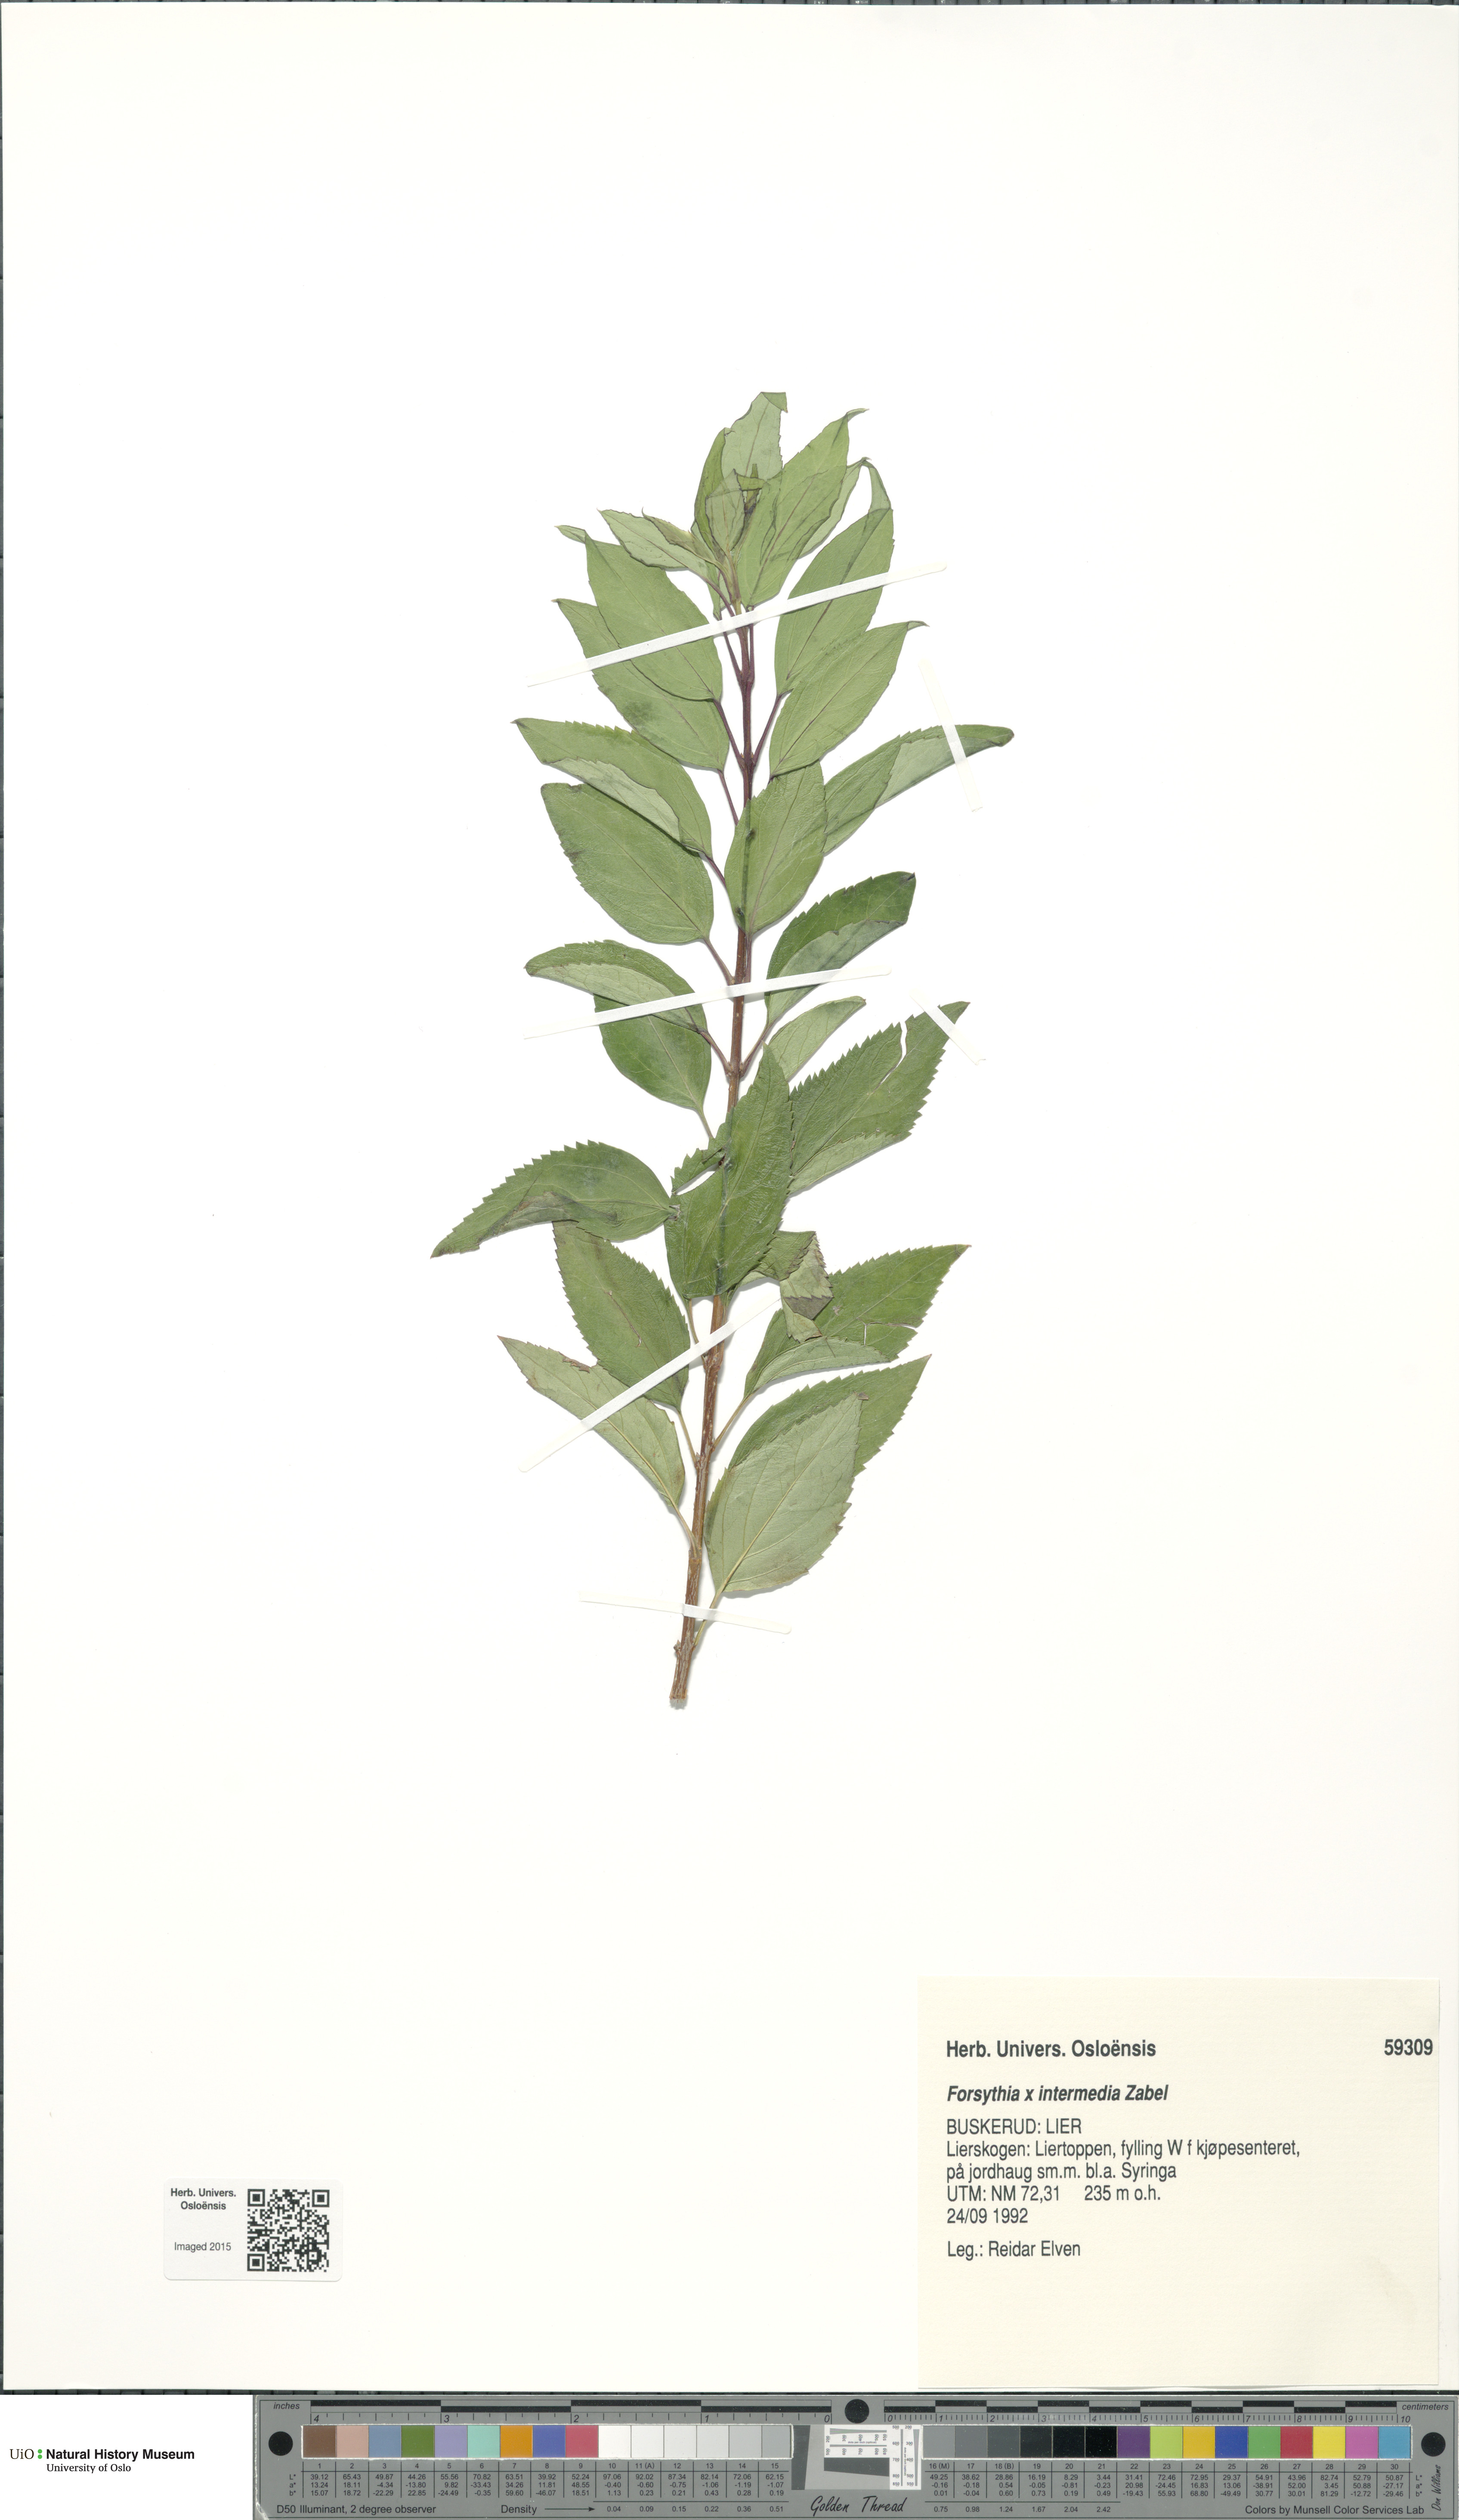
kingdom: Plantae
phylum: Tracheophyta
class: Magnoliopsida
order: Lamiales
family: Oleaceae
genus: Forsythia
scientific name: Forsythia intermedia
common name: Forsythia
